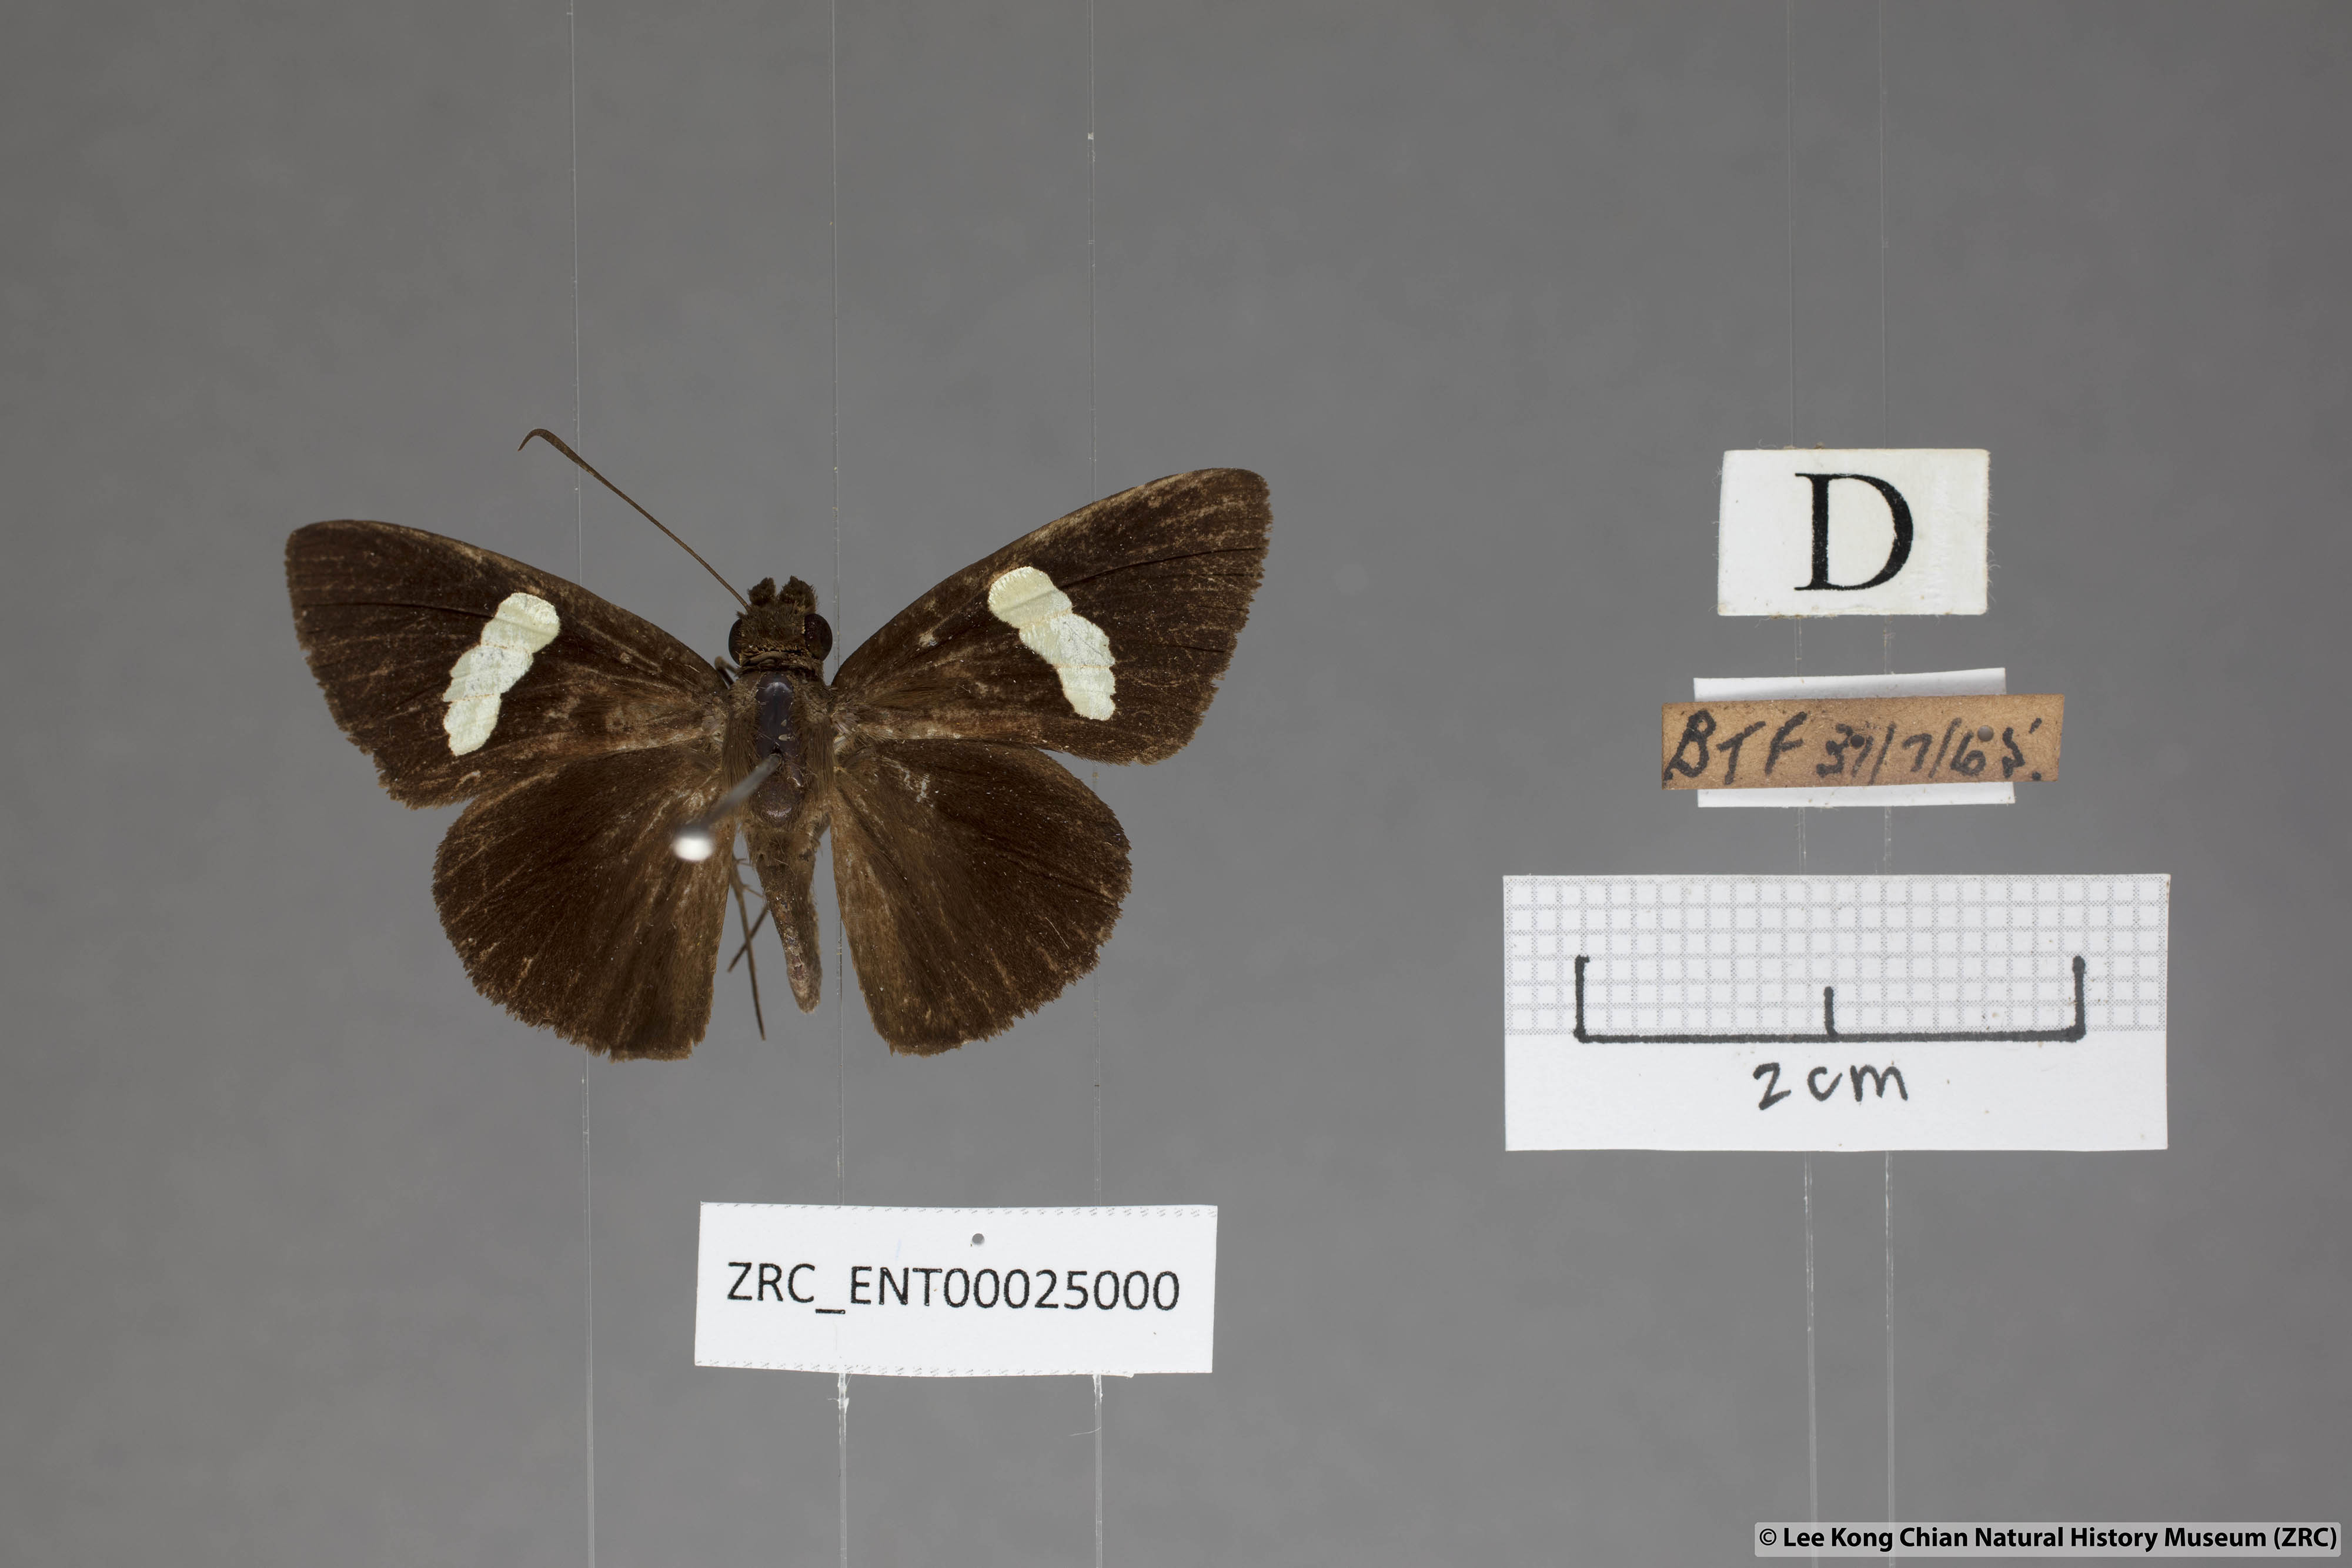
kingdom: Animalia
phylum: Arthropoda
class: Insecta
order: Lepidoptera
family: Hesperiidae
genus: Notocrypta
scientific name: Notocrypta clavata
